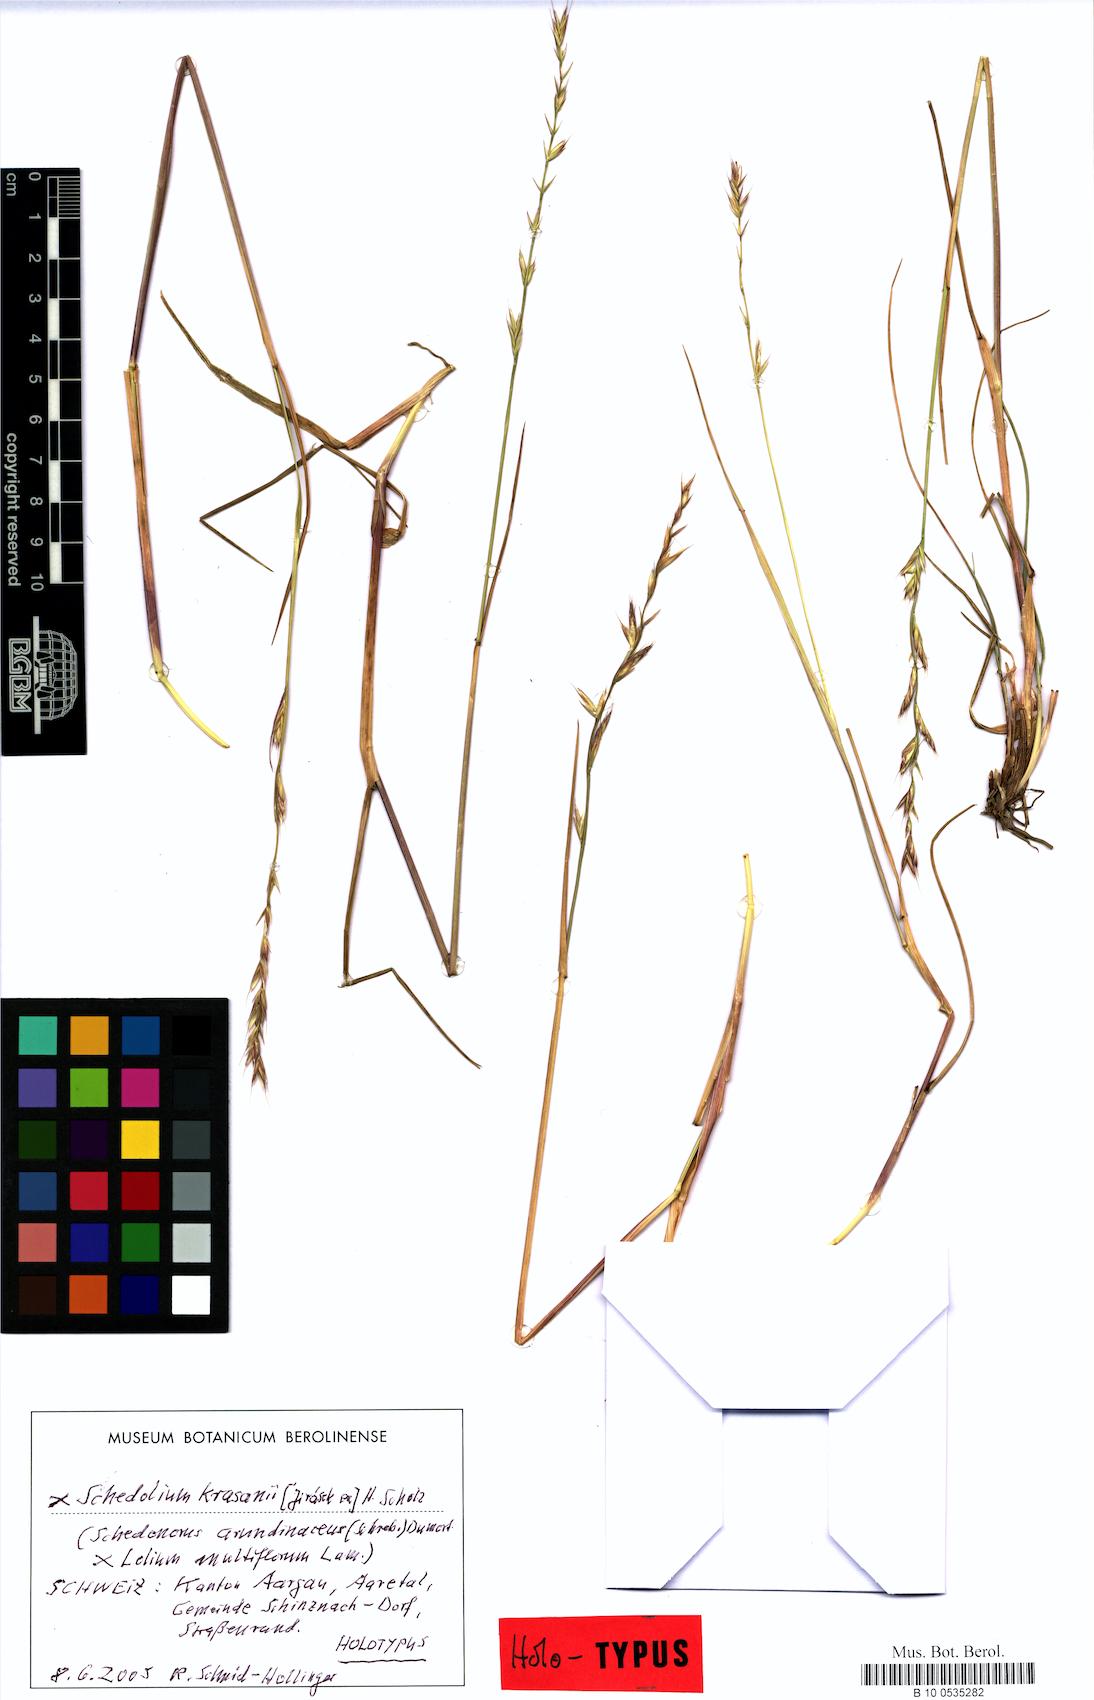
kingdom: Plantae
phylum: Tracheophyta
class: Liliopsida
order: Poales
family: Poaceae
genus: Lolium
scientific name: Lolium krasanii
